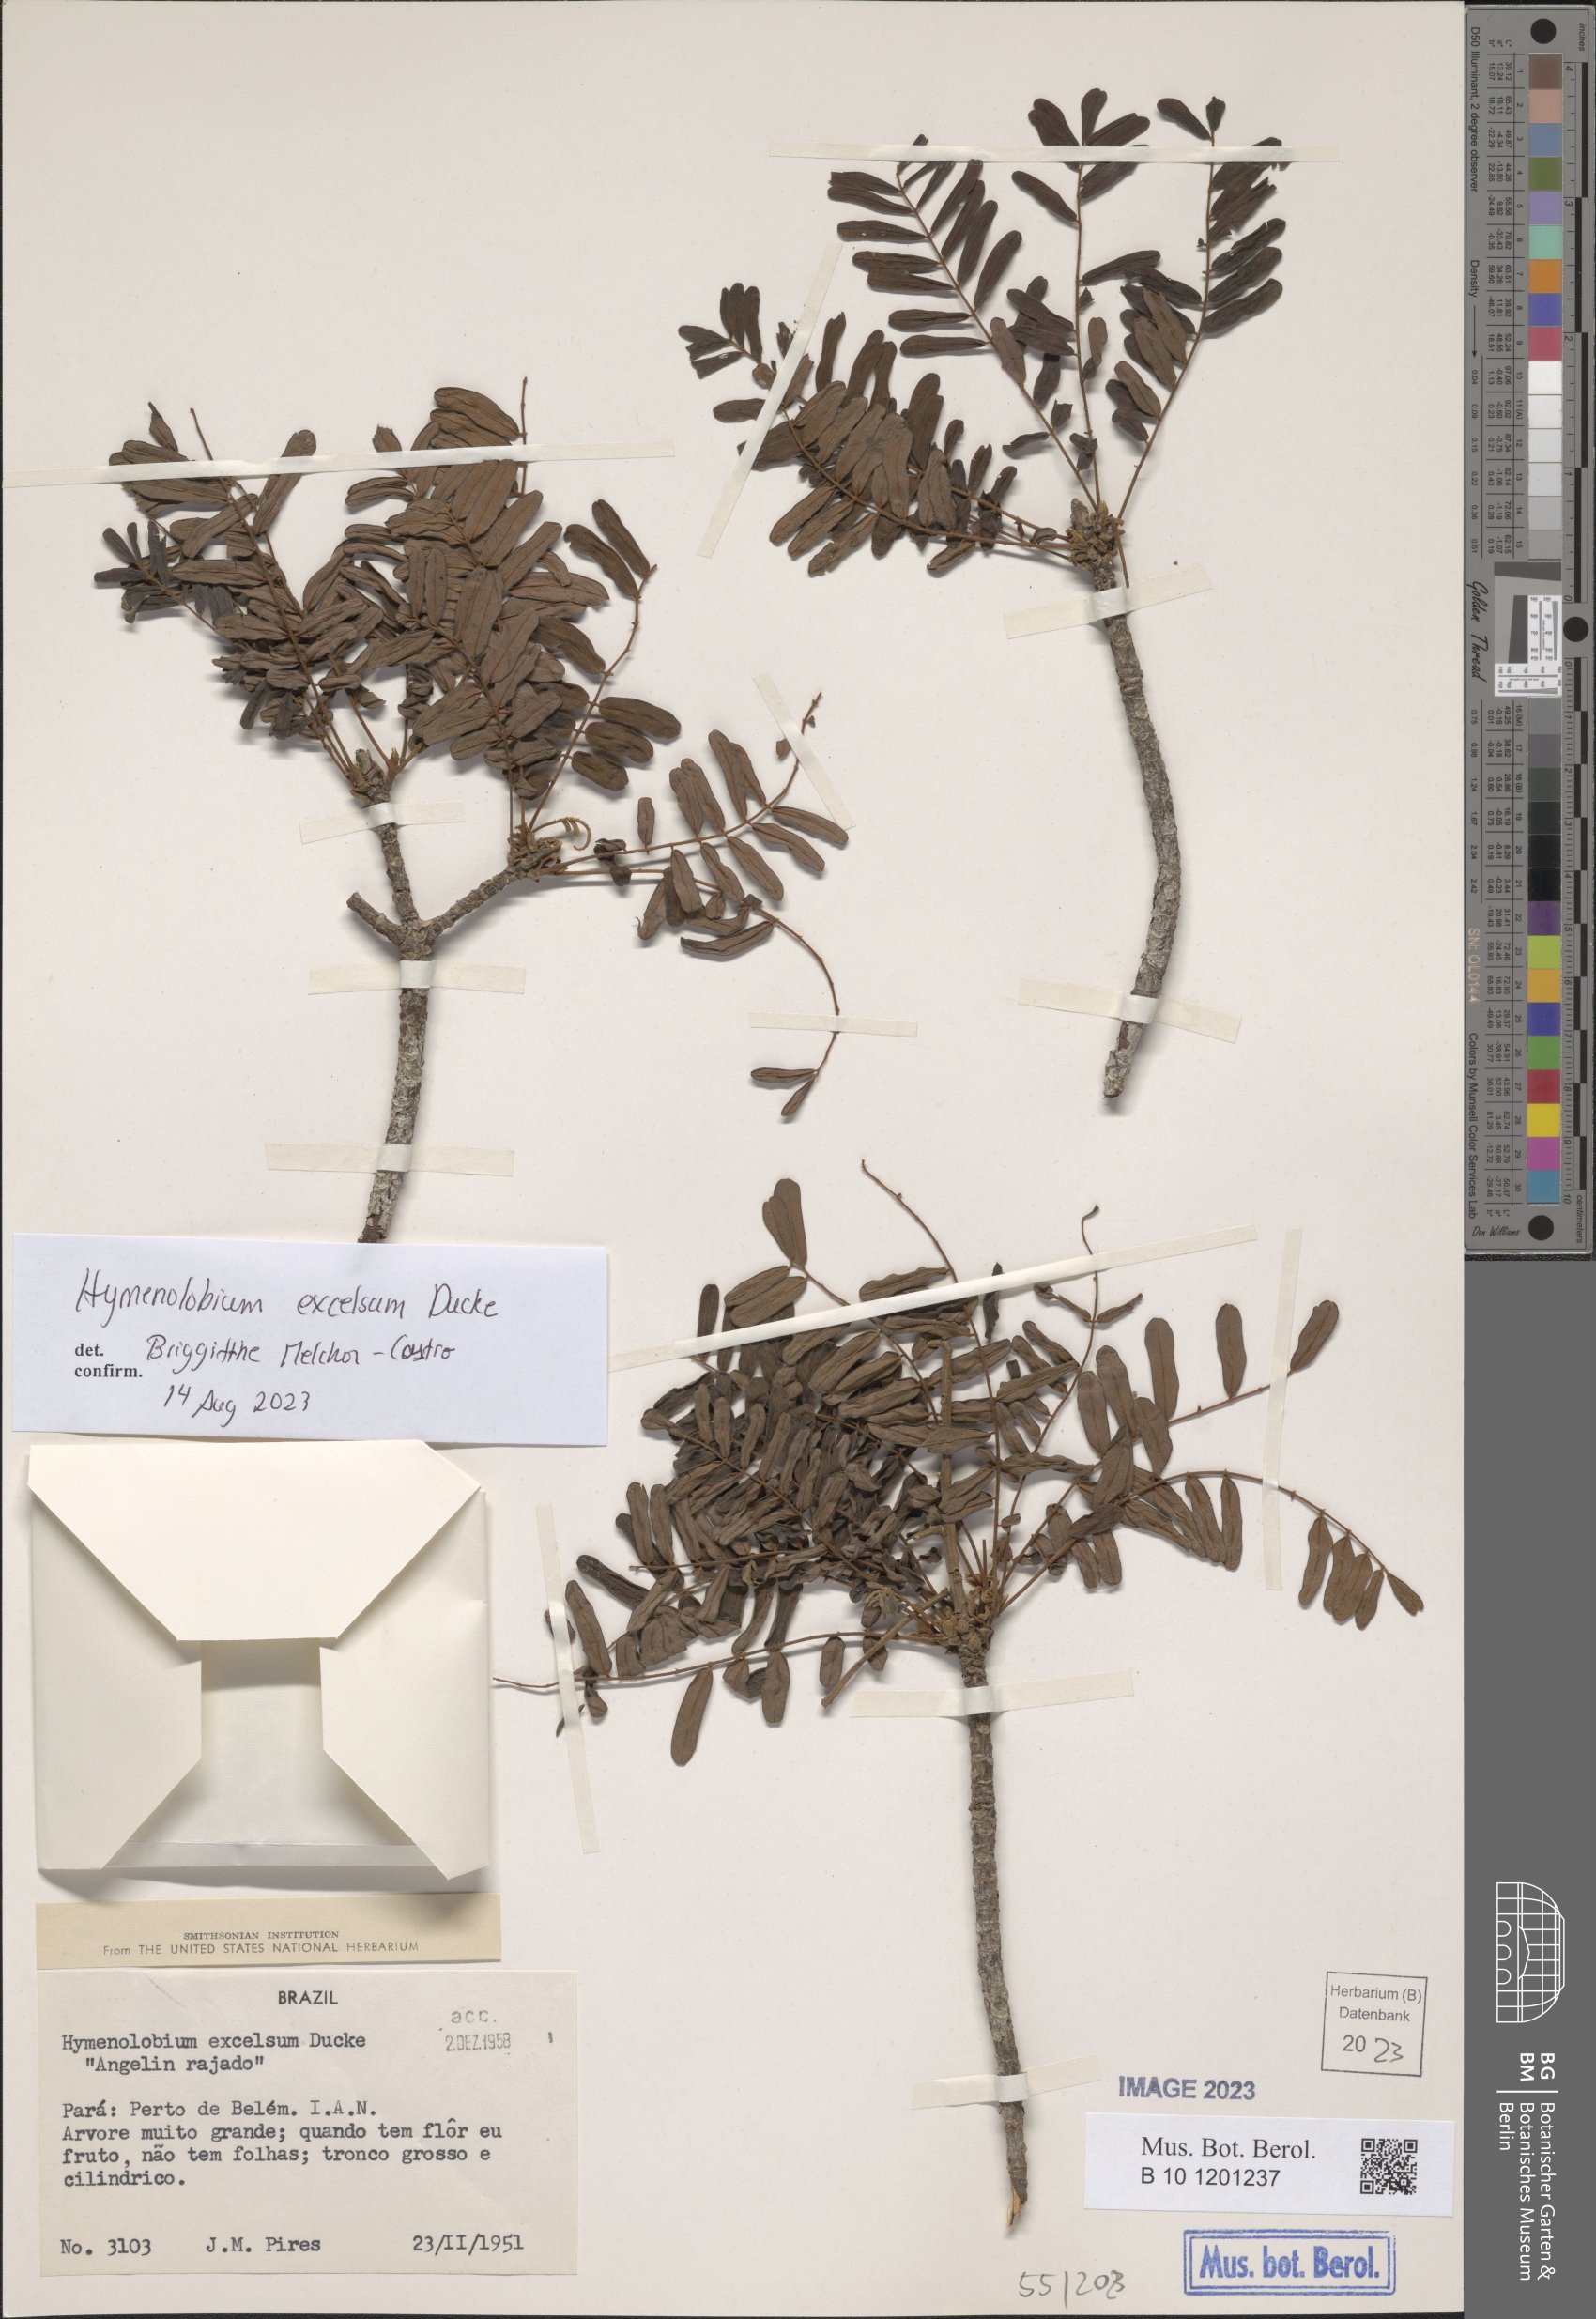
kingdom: Plantae
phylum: Tracheophyta
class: Magnoliopsida
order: Fabales
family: Fabaceae
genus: Hymenolobium
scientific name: Hymenolobium excelsum
